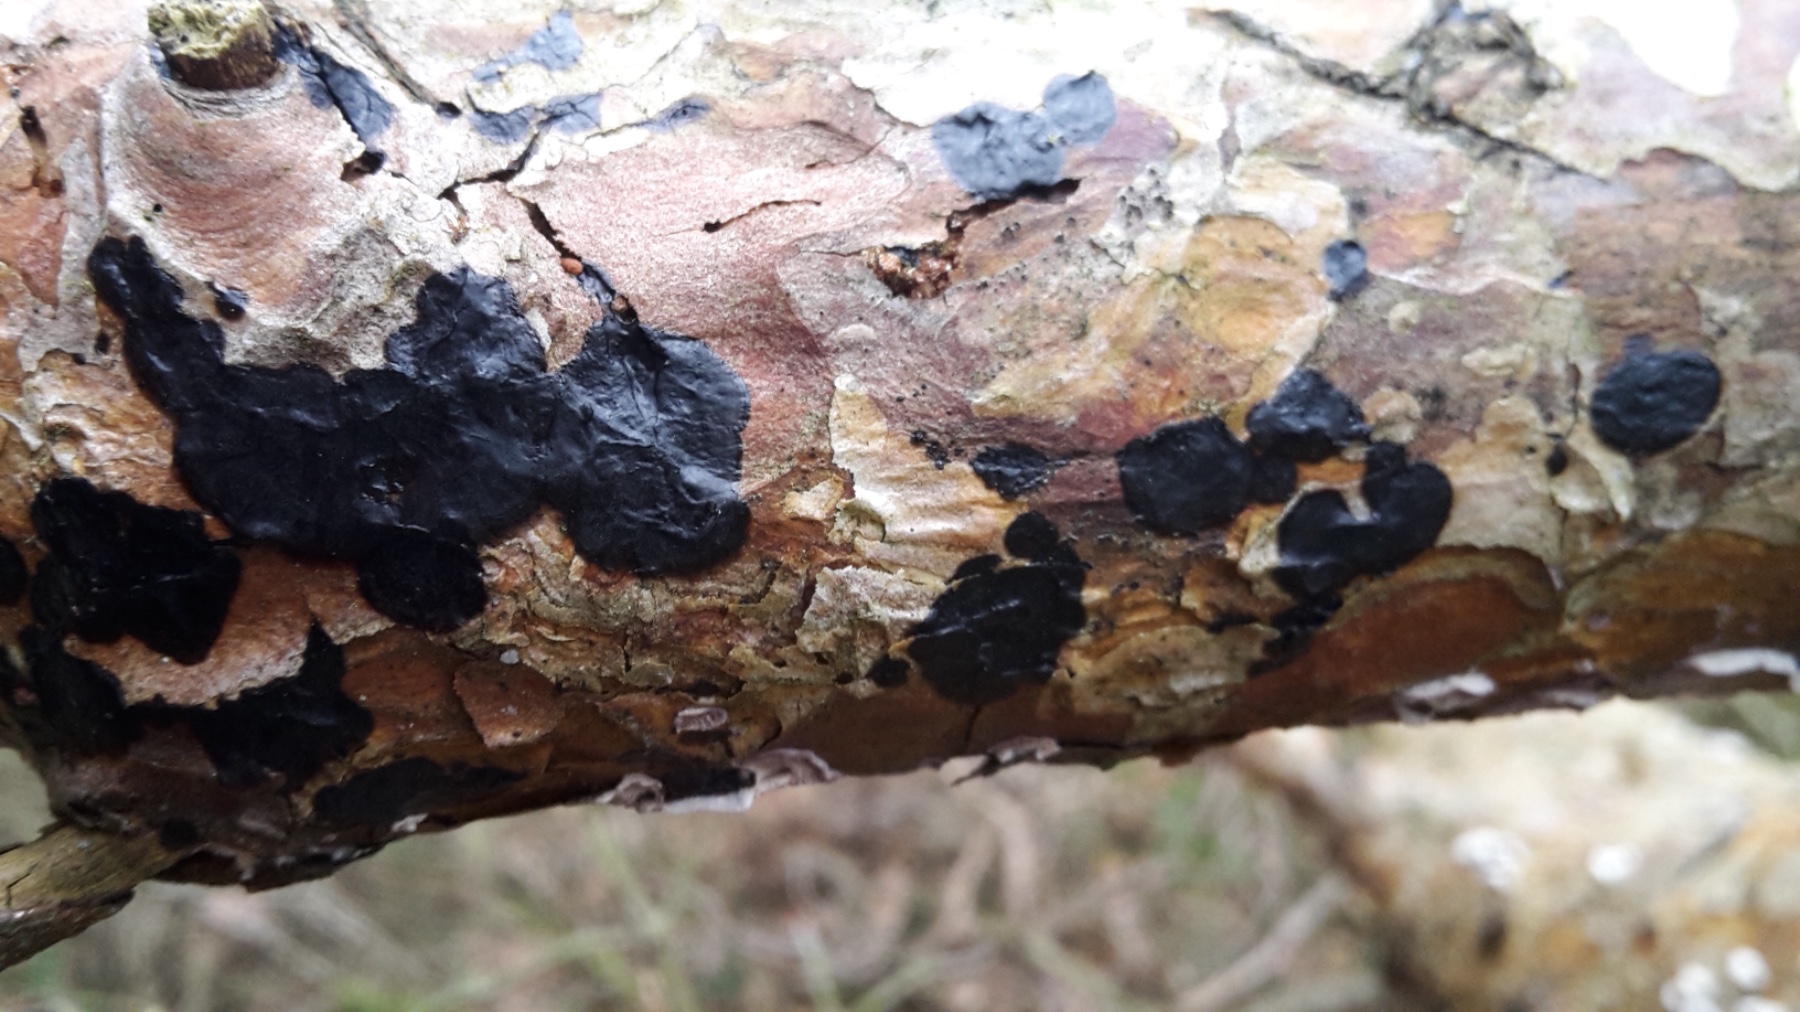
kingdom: Fungi
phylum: Basidiomycota
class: Agaricomycetes
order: Auriculariales
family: Auriculariaceae
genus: Exidia
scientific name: Exidia pithya
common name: gran-bævretop
